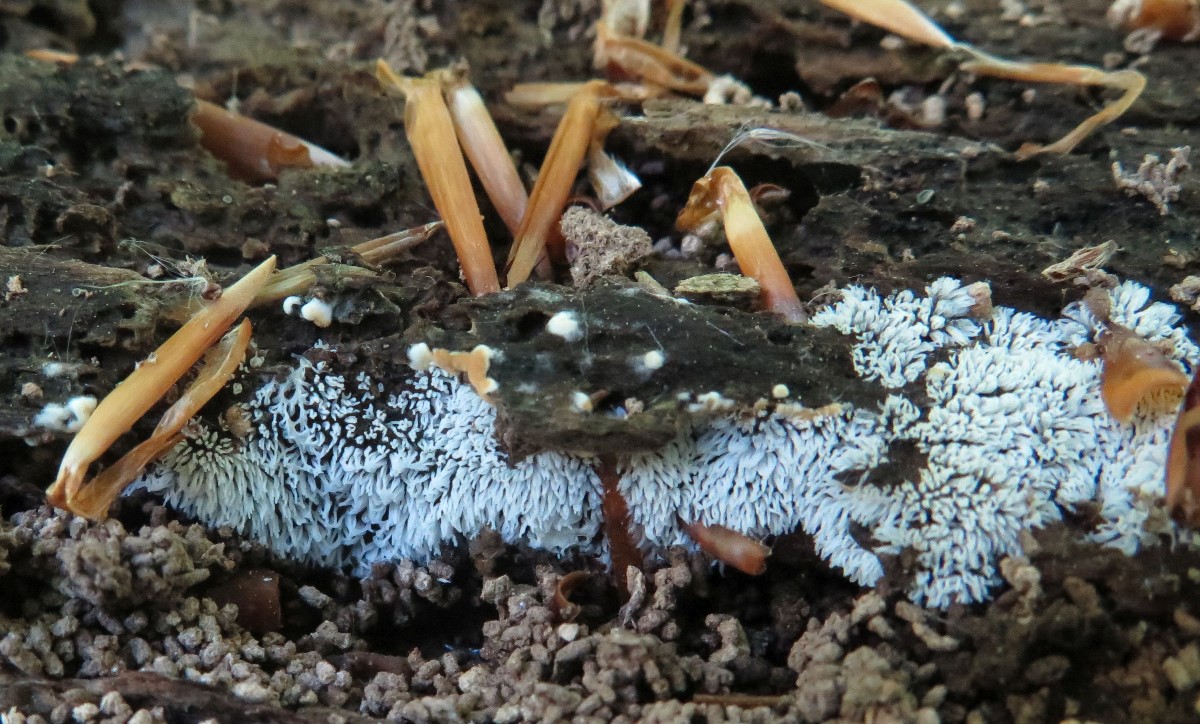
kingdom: Protozoa
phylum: Mycetozoa
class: Protosteliomycetes
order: Ceratiomyxales
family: Ceratiomyxaceae
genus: Ceratiomyxa
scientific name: Ceratiomyxa fruticulosa
